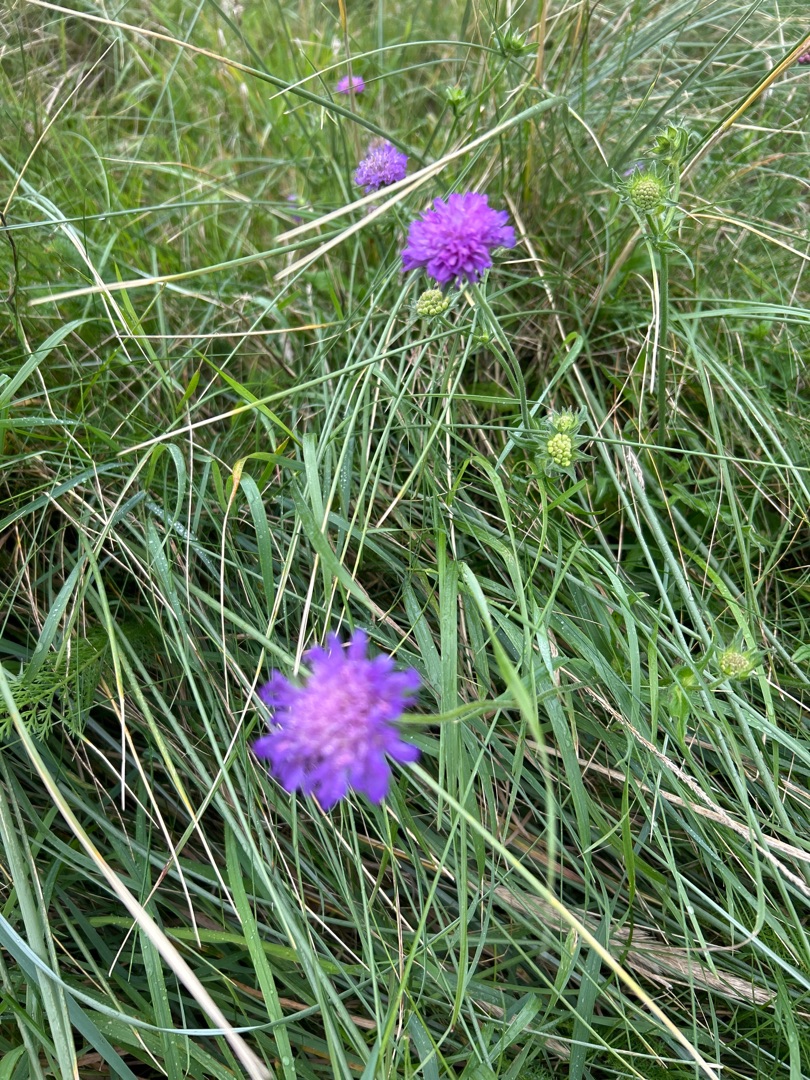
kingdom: Plantae
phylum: Tracheophyta
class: Magnoliopsida
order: Dipsacales
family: Caprifoliaceae
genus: Knautia
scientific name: Knautia arvensis
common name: Blåhat
